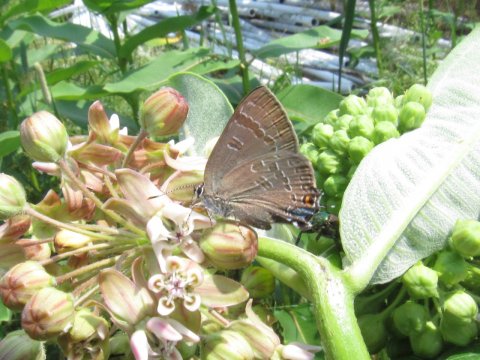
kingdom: Animalia
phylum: Arthropoda
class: Insecta
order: Lepidoptera
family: Lycaenidae
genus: Strymon
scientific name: Strymon caryaevorus
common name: Hickory Hairstreak
